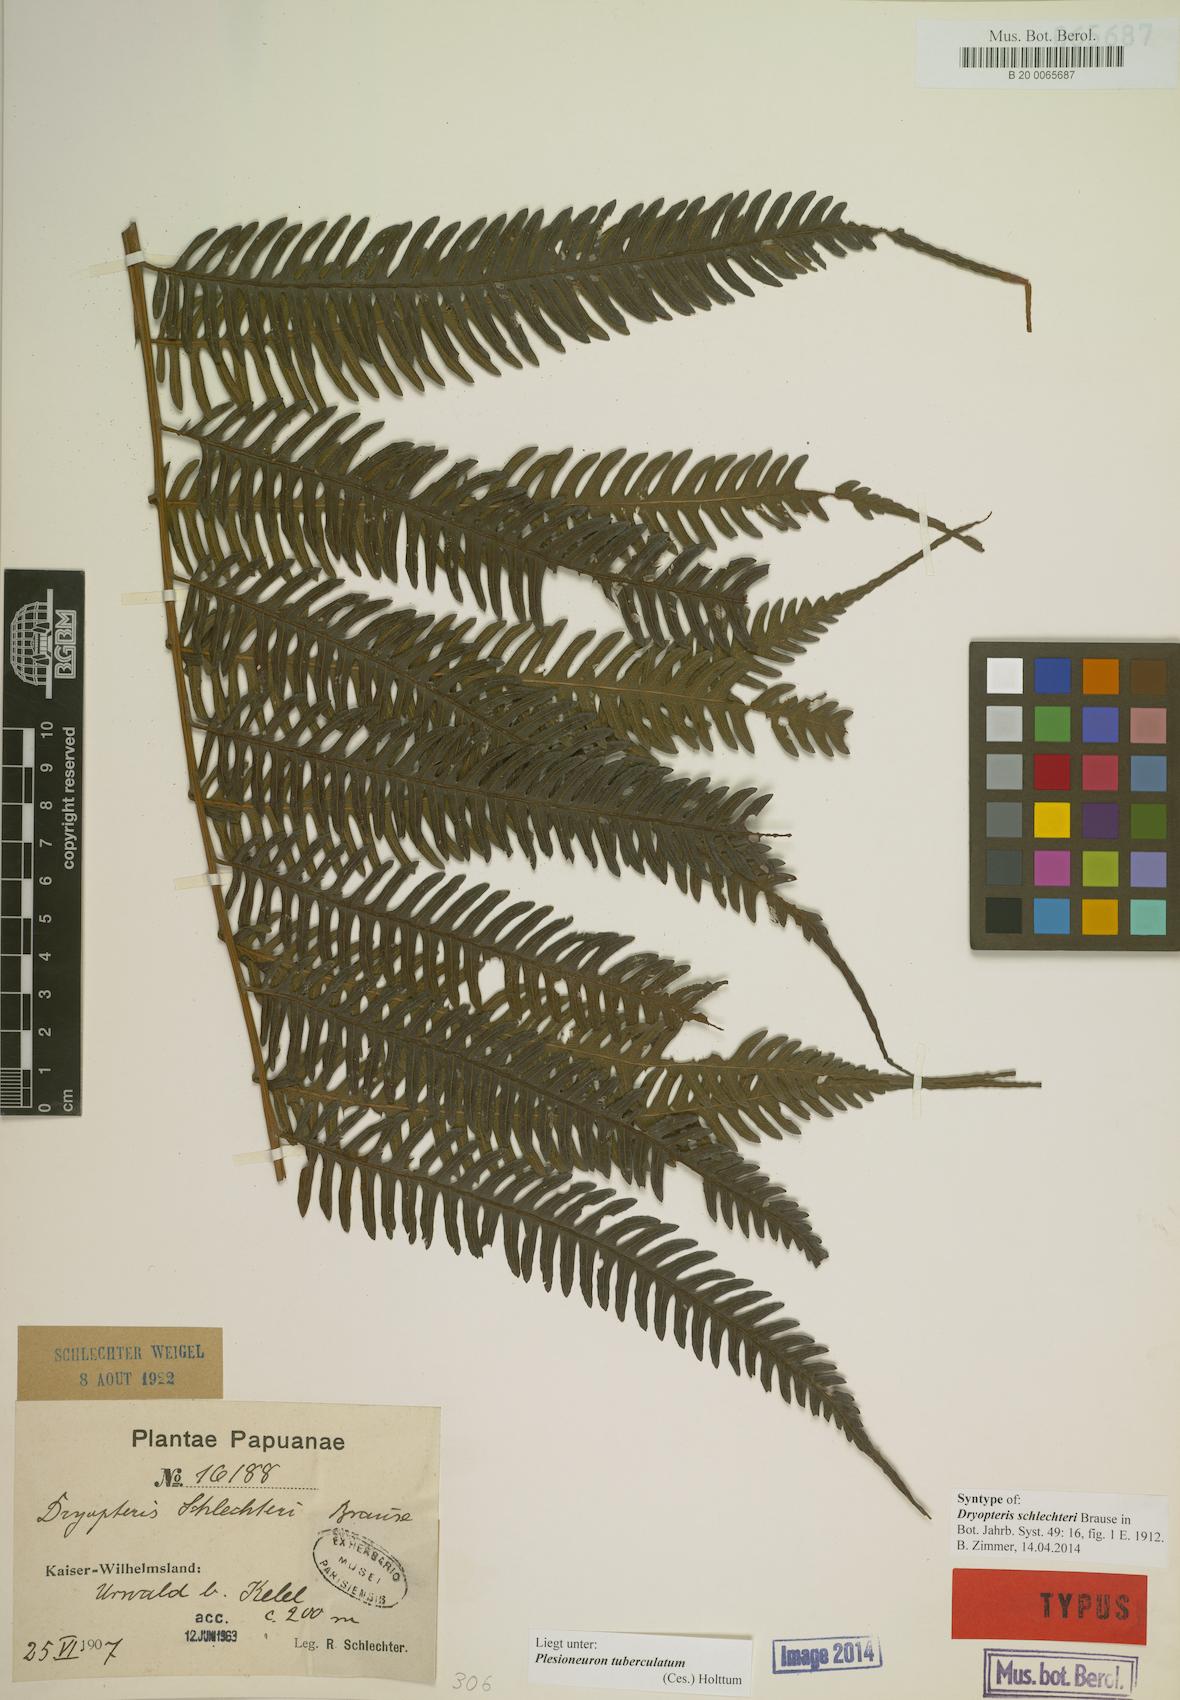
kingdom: Plantae
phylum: Tracheophyta
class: Polypodiopsida
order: Polypodiales
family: Thelypteridaceae
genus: Plesioneuron
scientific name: Plesioneuron tuberculatum
